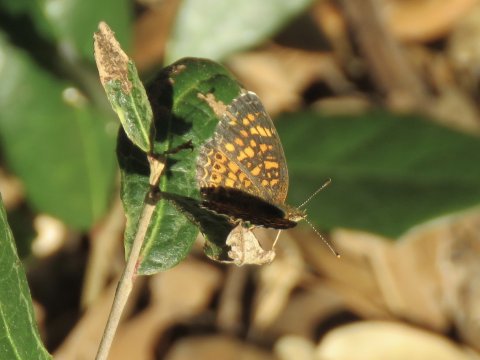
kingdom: Animalia
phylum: Arthropoda
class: Insecta
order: Lepidoptera
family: Nymphalidae
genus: Phyciodes
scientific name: Phyciodes vesta
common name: Vesta Crescent
